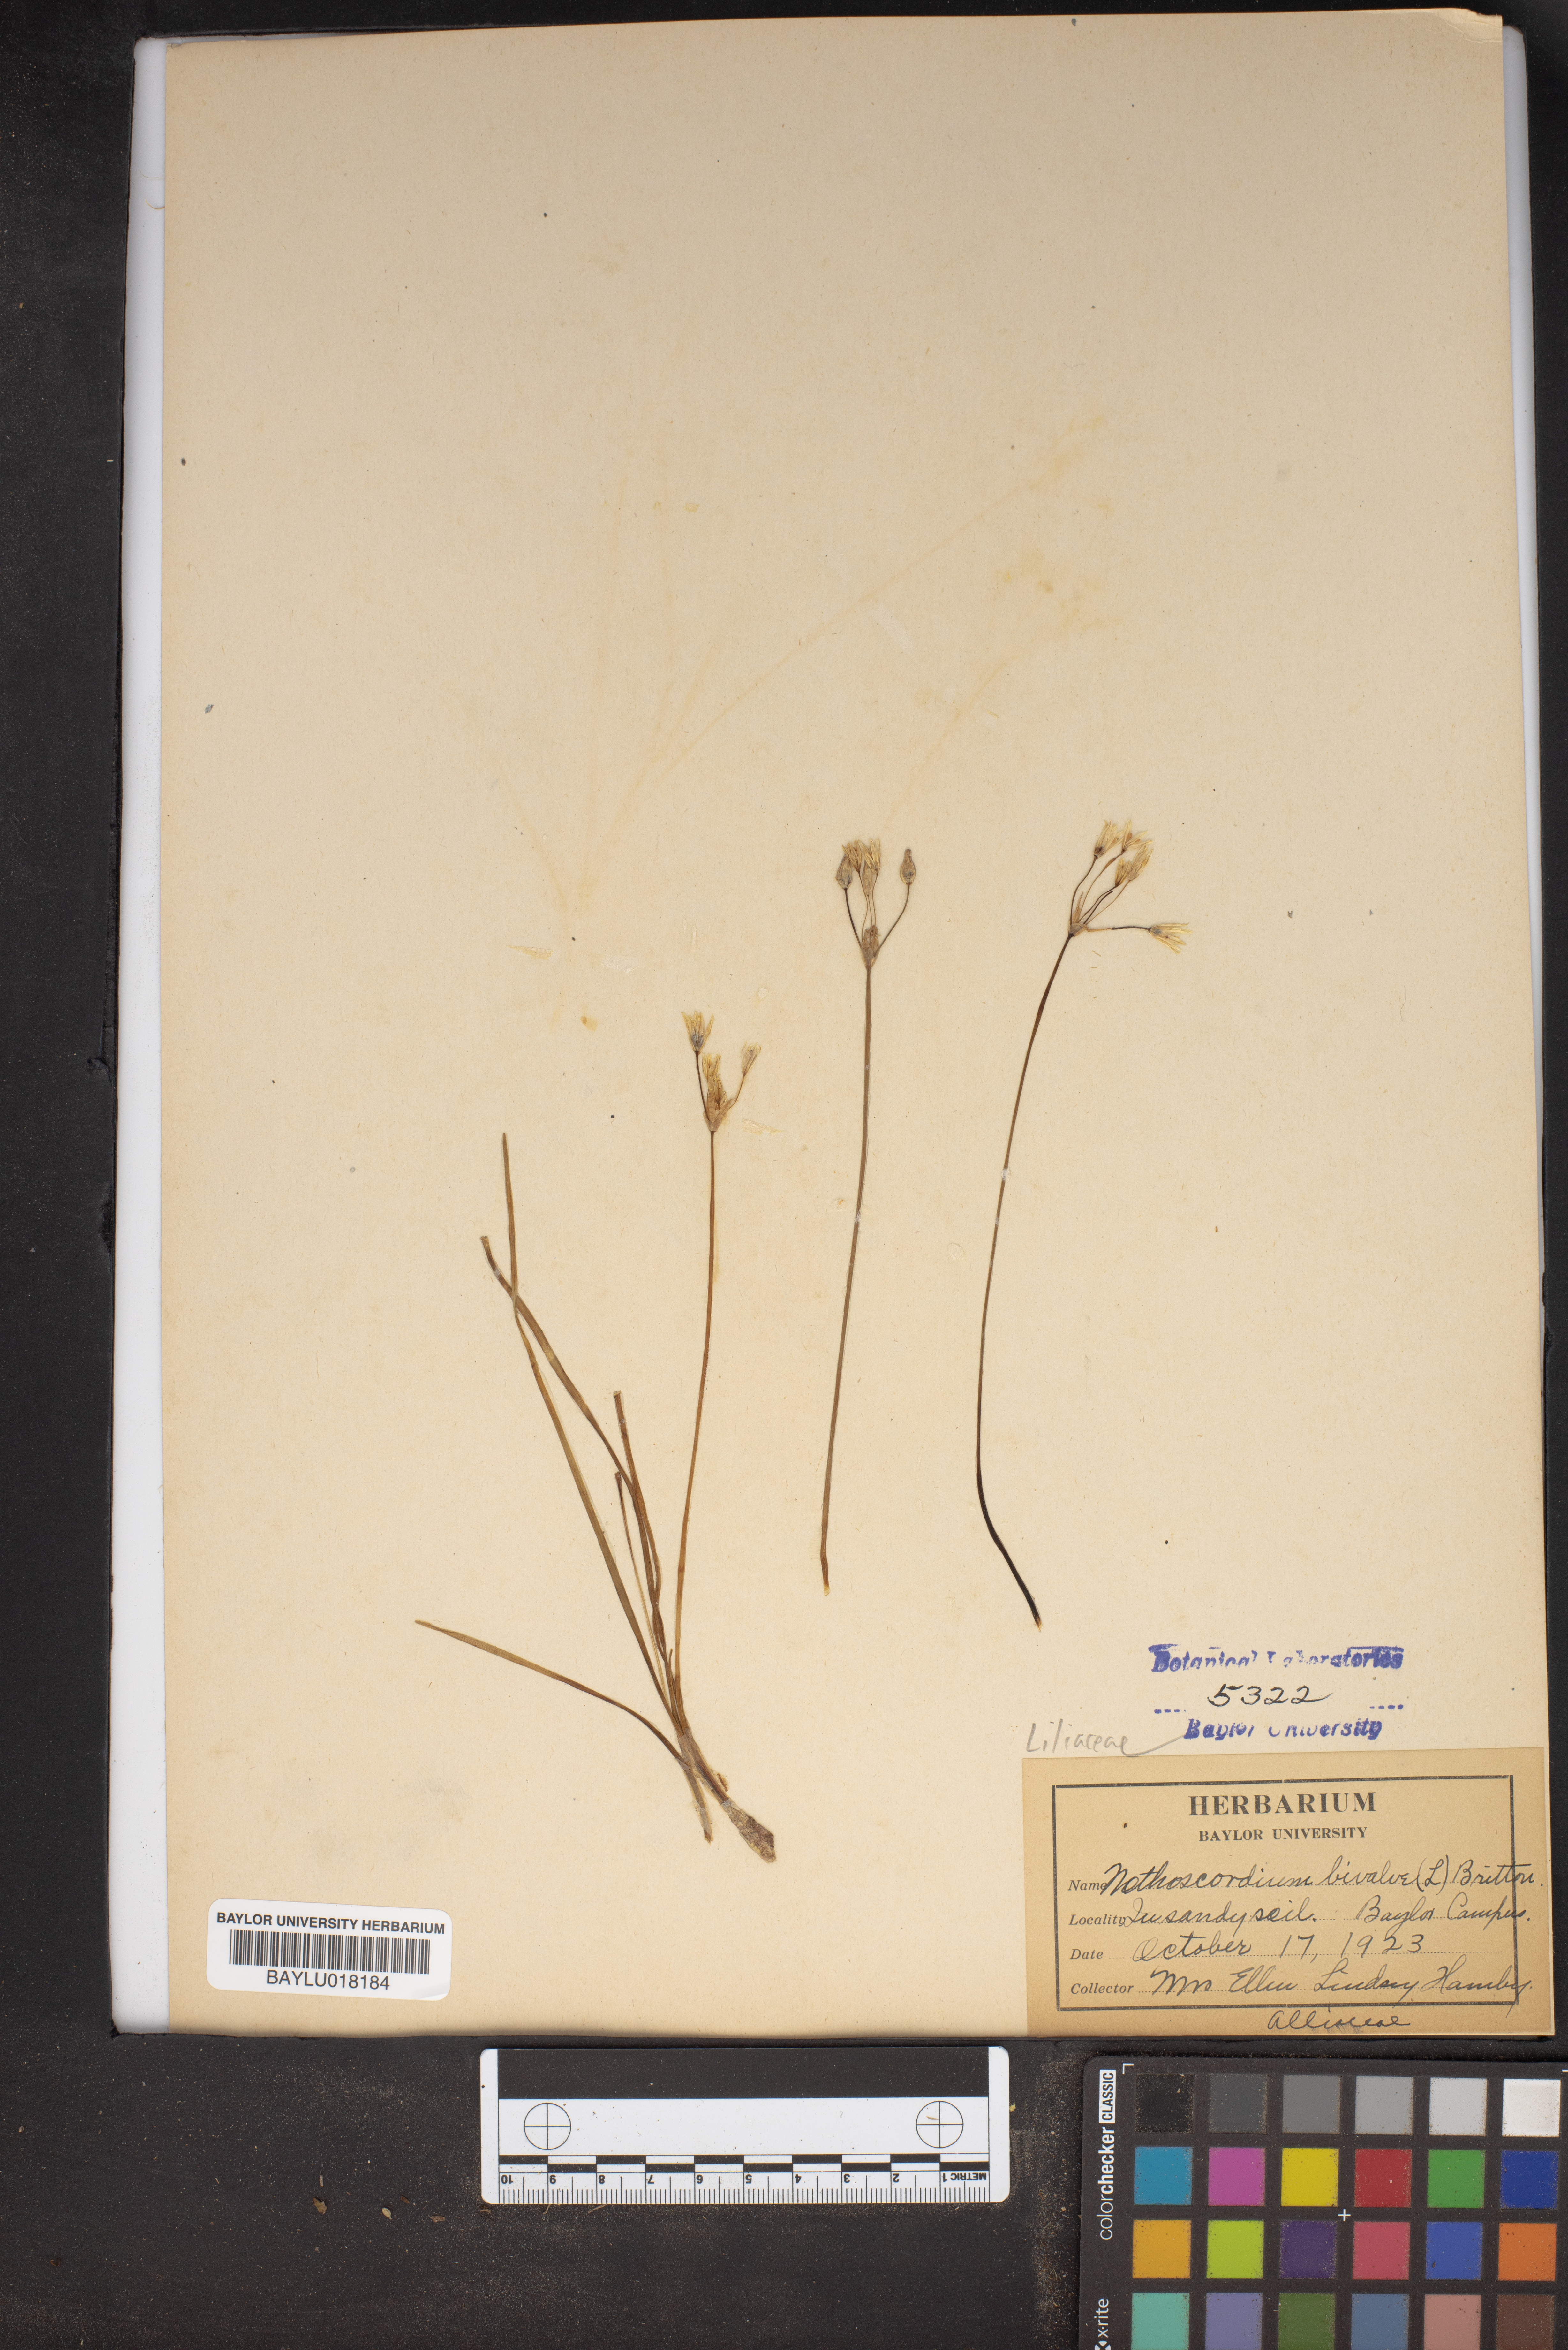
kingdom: Plantae
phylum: Tracheophyta
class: Liliopsida
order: Asparagales
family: Amaryllidaceae
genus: Nothoscordum
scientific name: Nothoscordum bivalve
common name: Crow-poison
